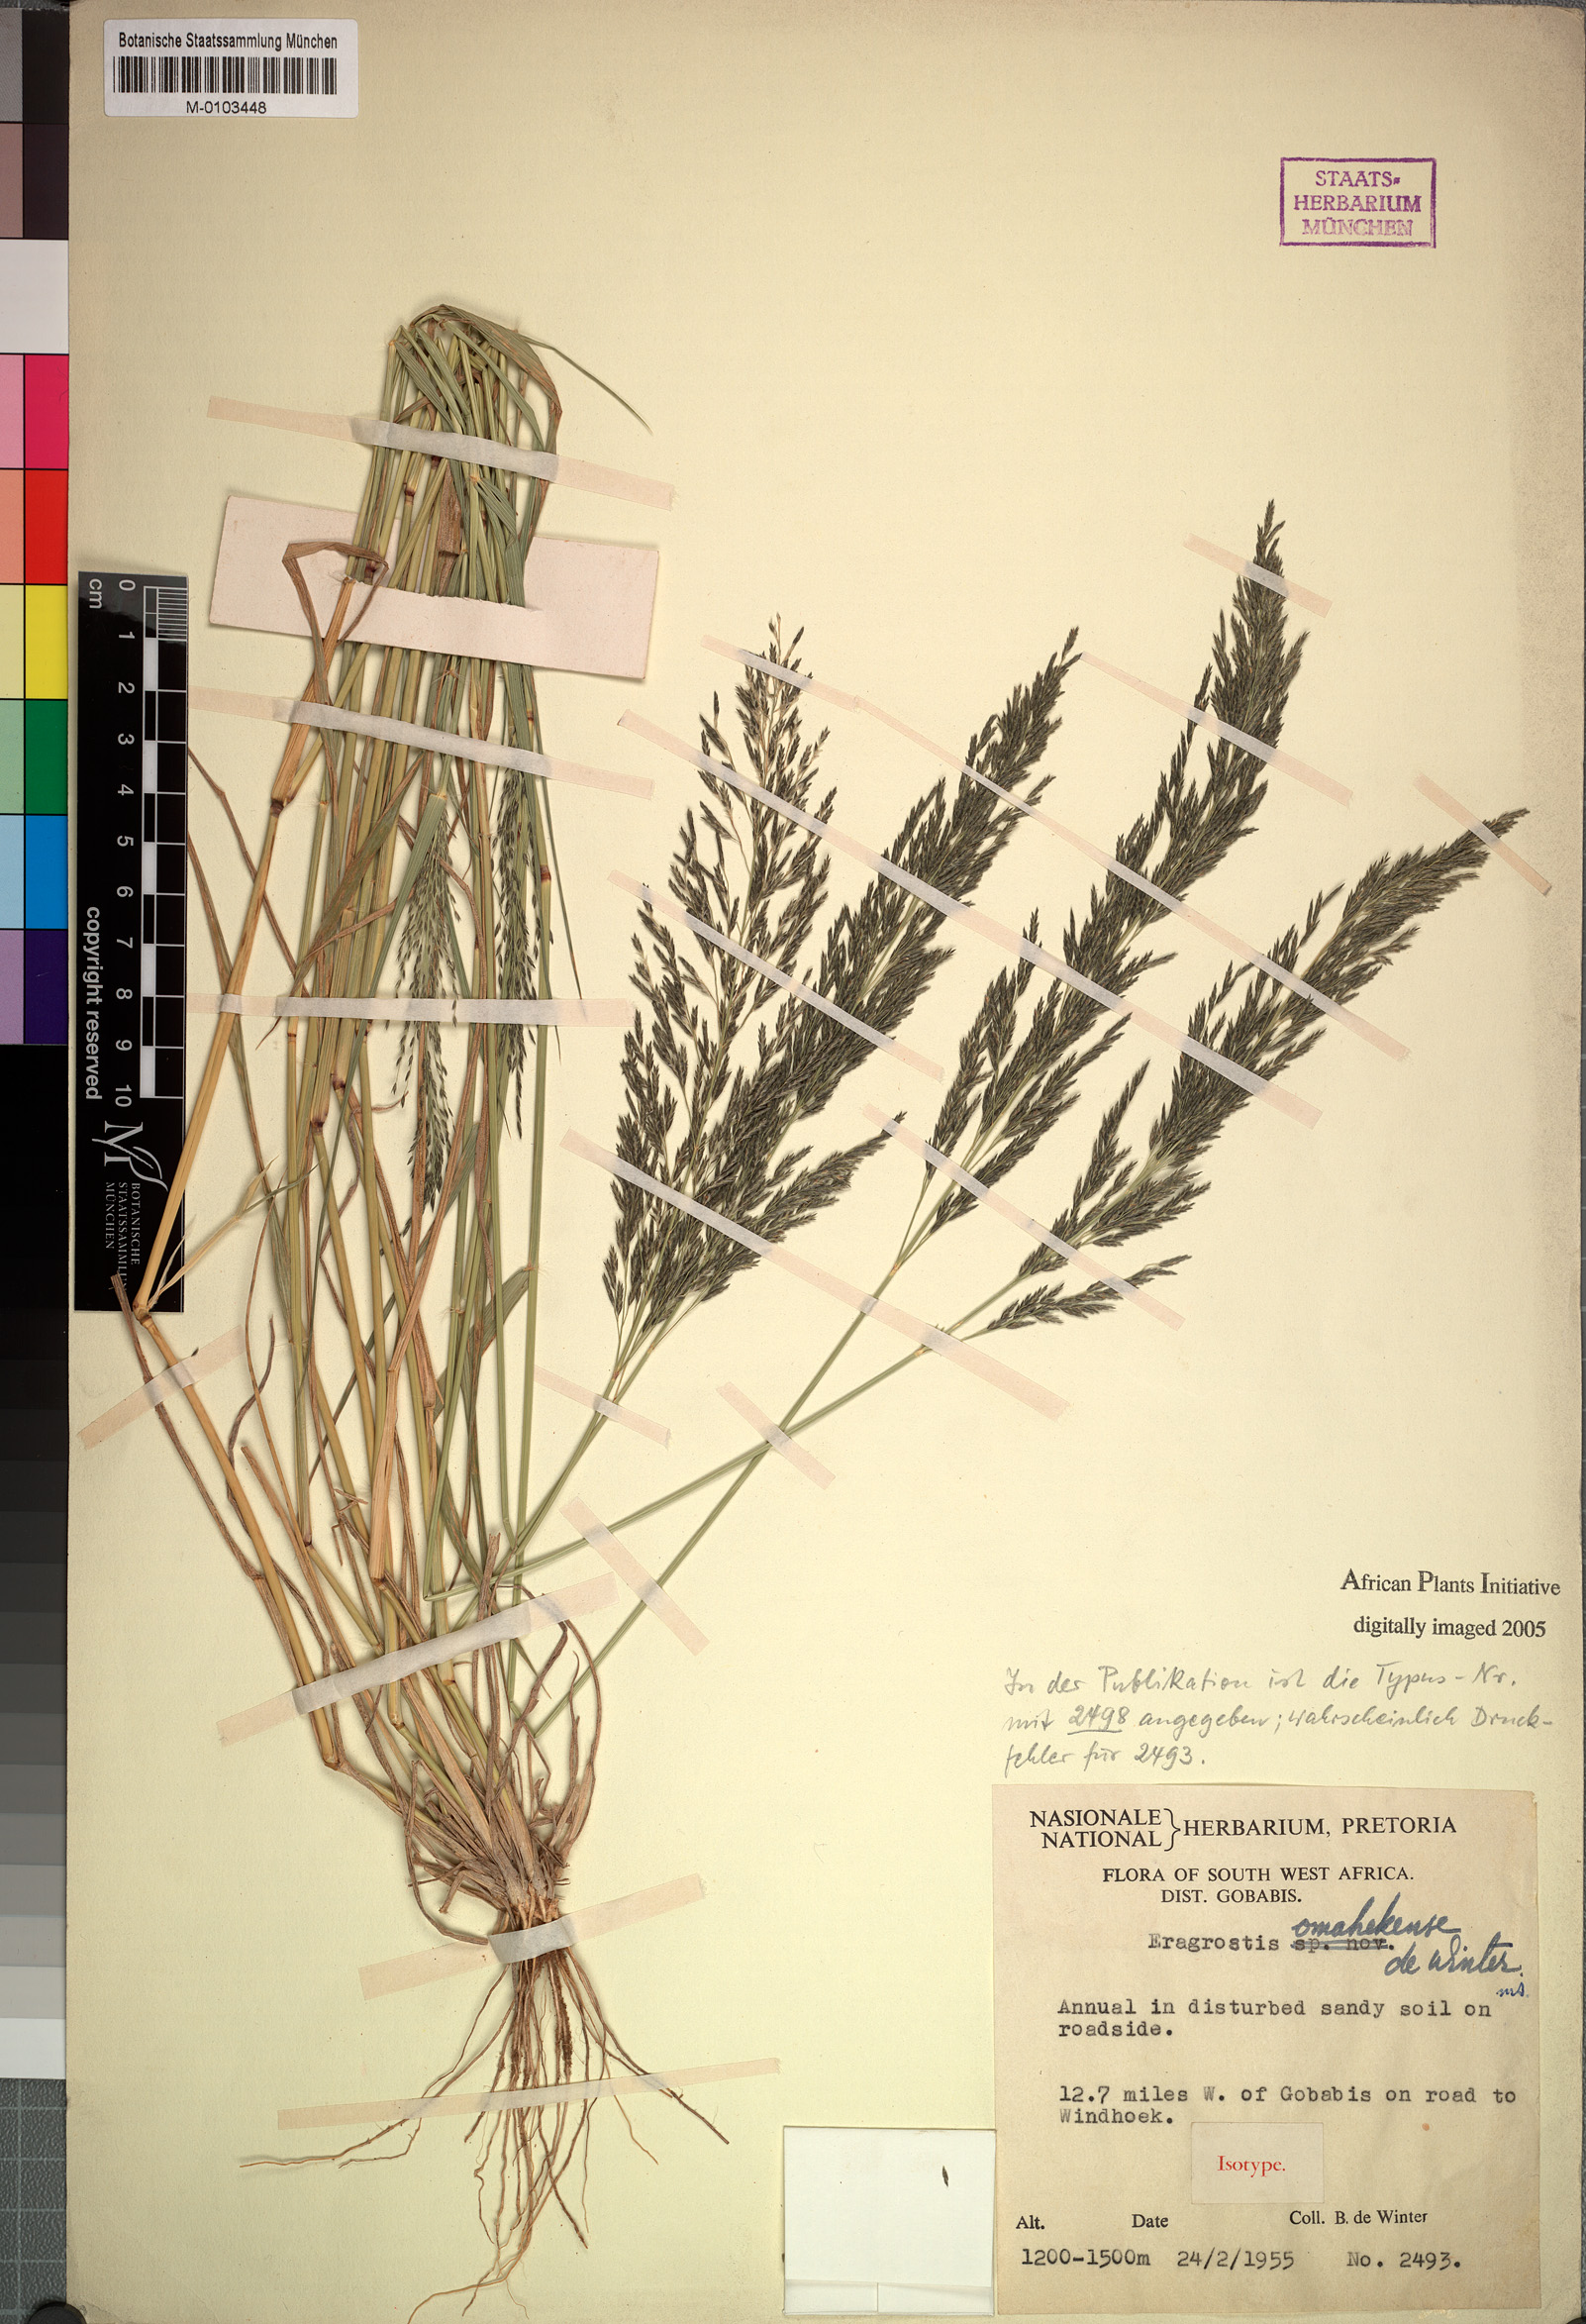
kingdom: Plantae
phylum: Tracheophyta
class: Liliopsida
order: Poales
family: Poaceae
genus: Eragrostis
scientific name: Eragrostis omahekensis
